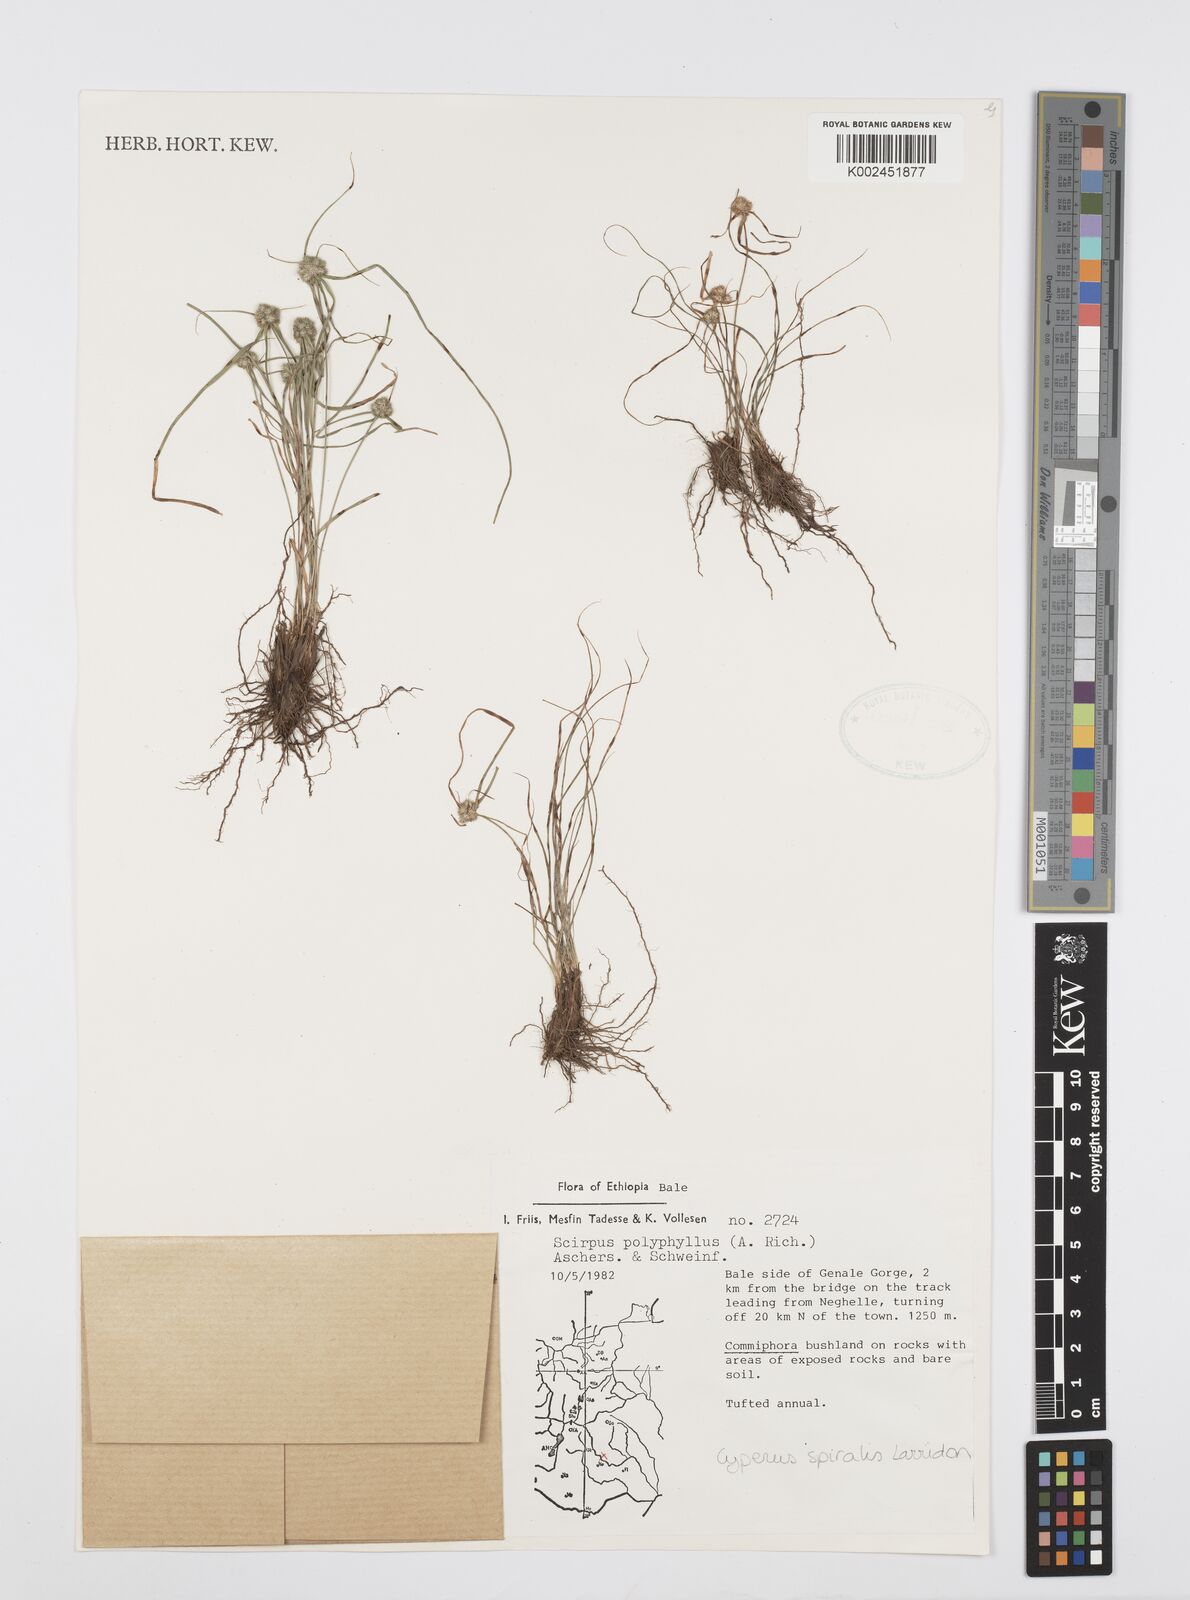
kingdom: Plantae
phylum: Tracheophyta
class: Liliopsida
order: Poales
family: Cyperaceae
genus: Cyperus
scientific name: Cyperus microcephalus
